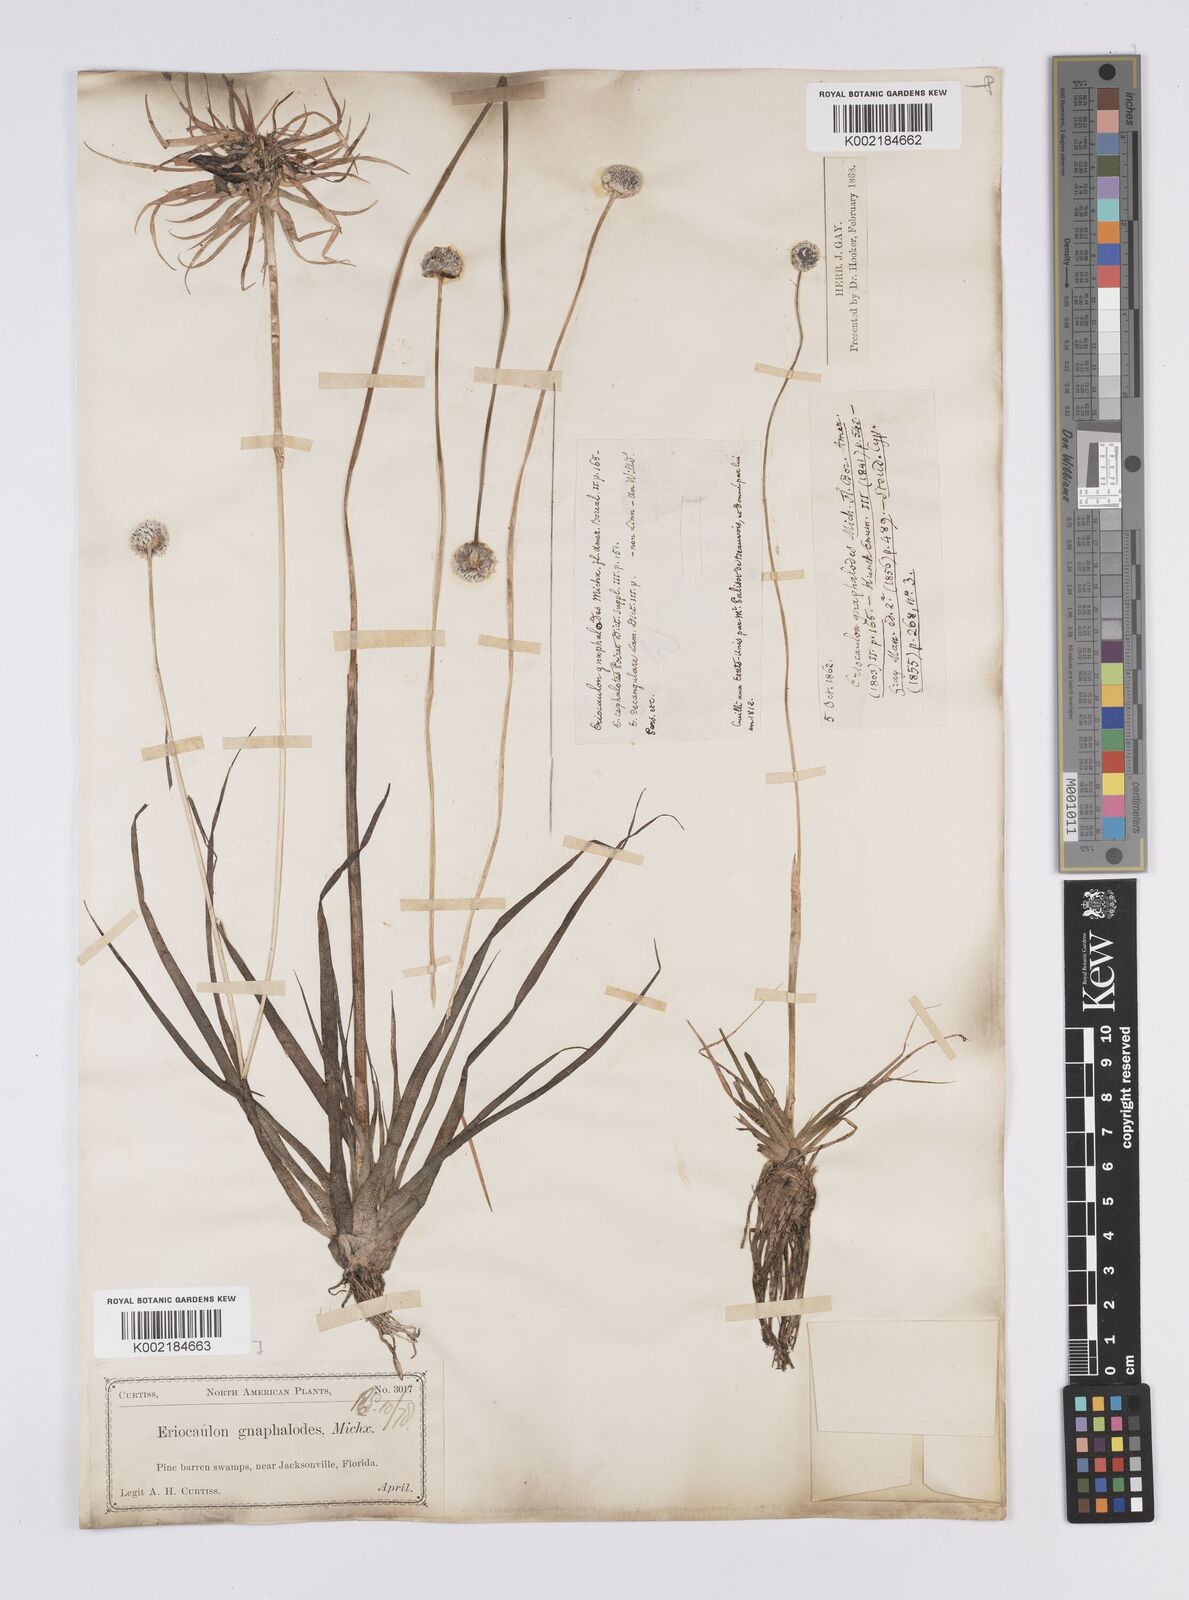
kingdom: Plantae
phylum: Tracheophyta
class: Liliopsida
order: Poales
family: Eriocaulaceae
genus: Eriocaulon
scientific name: Eriocaulon compressum
